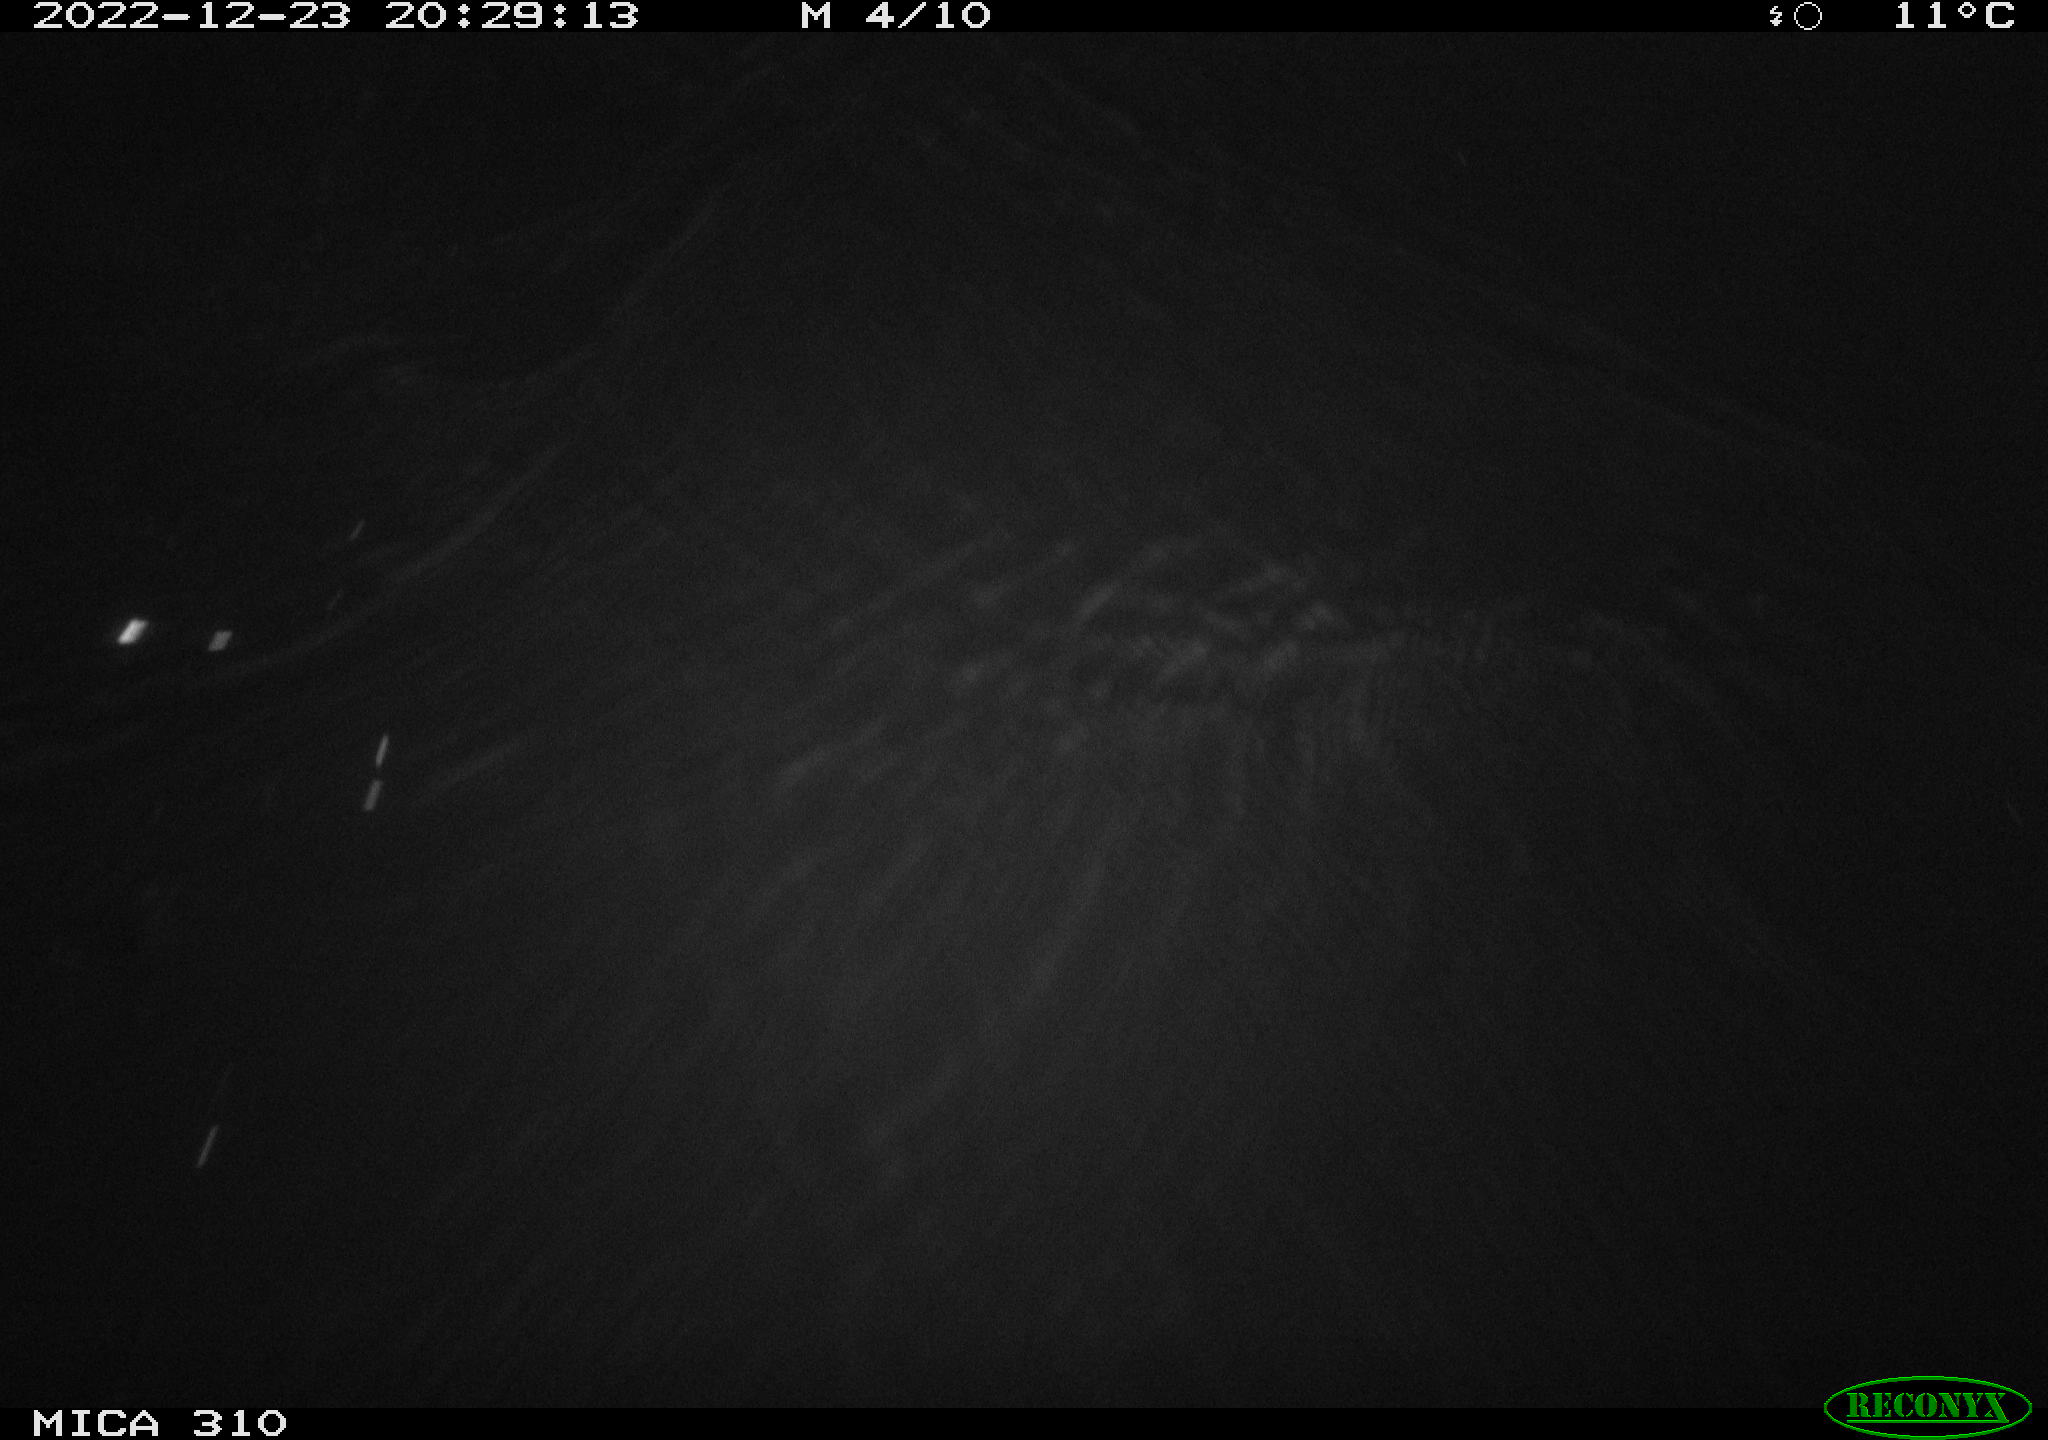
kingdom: Animalia
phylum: Chordata
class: Mammalia
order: Rodentia
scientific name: Rodentia
